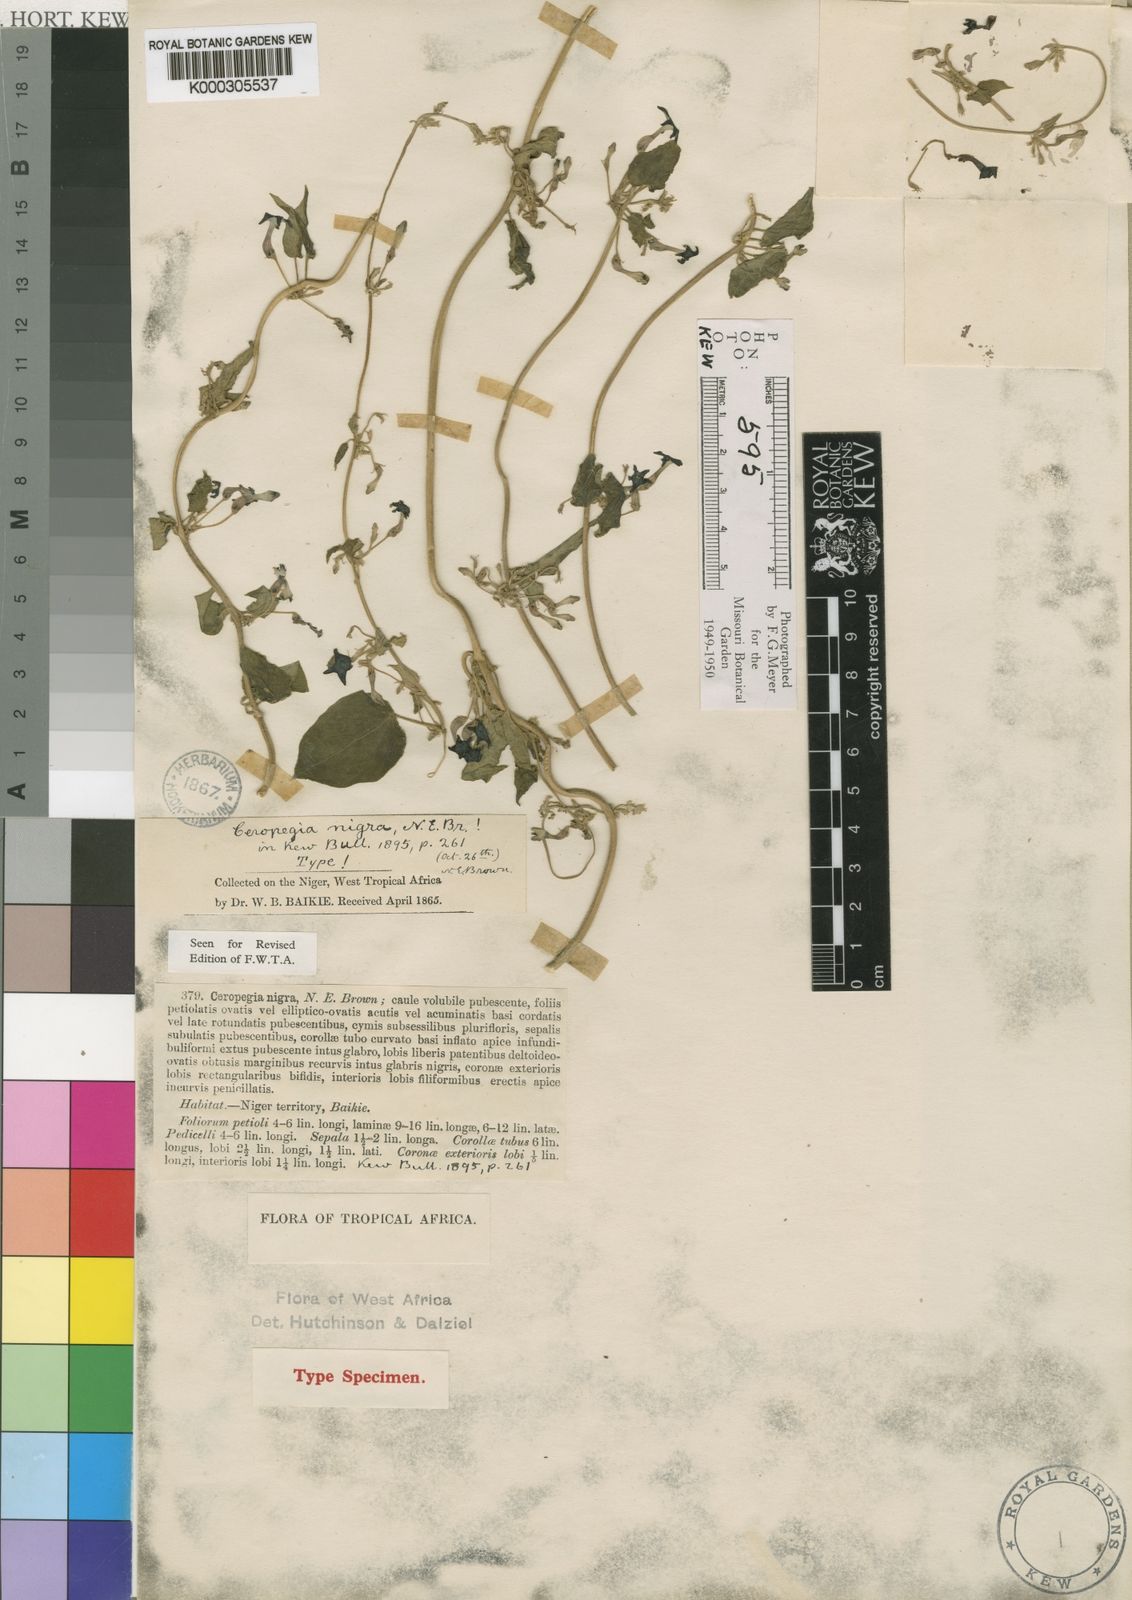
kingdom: Plantae
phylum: Tracheophyta
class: Magnoliopsida
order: Gentianales
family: Apocynaceae
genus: Ceropegia
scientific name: Ceropegia nigra
